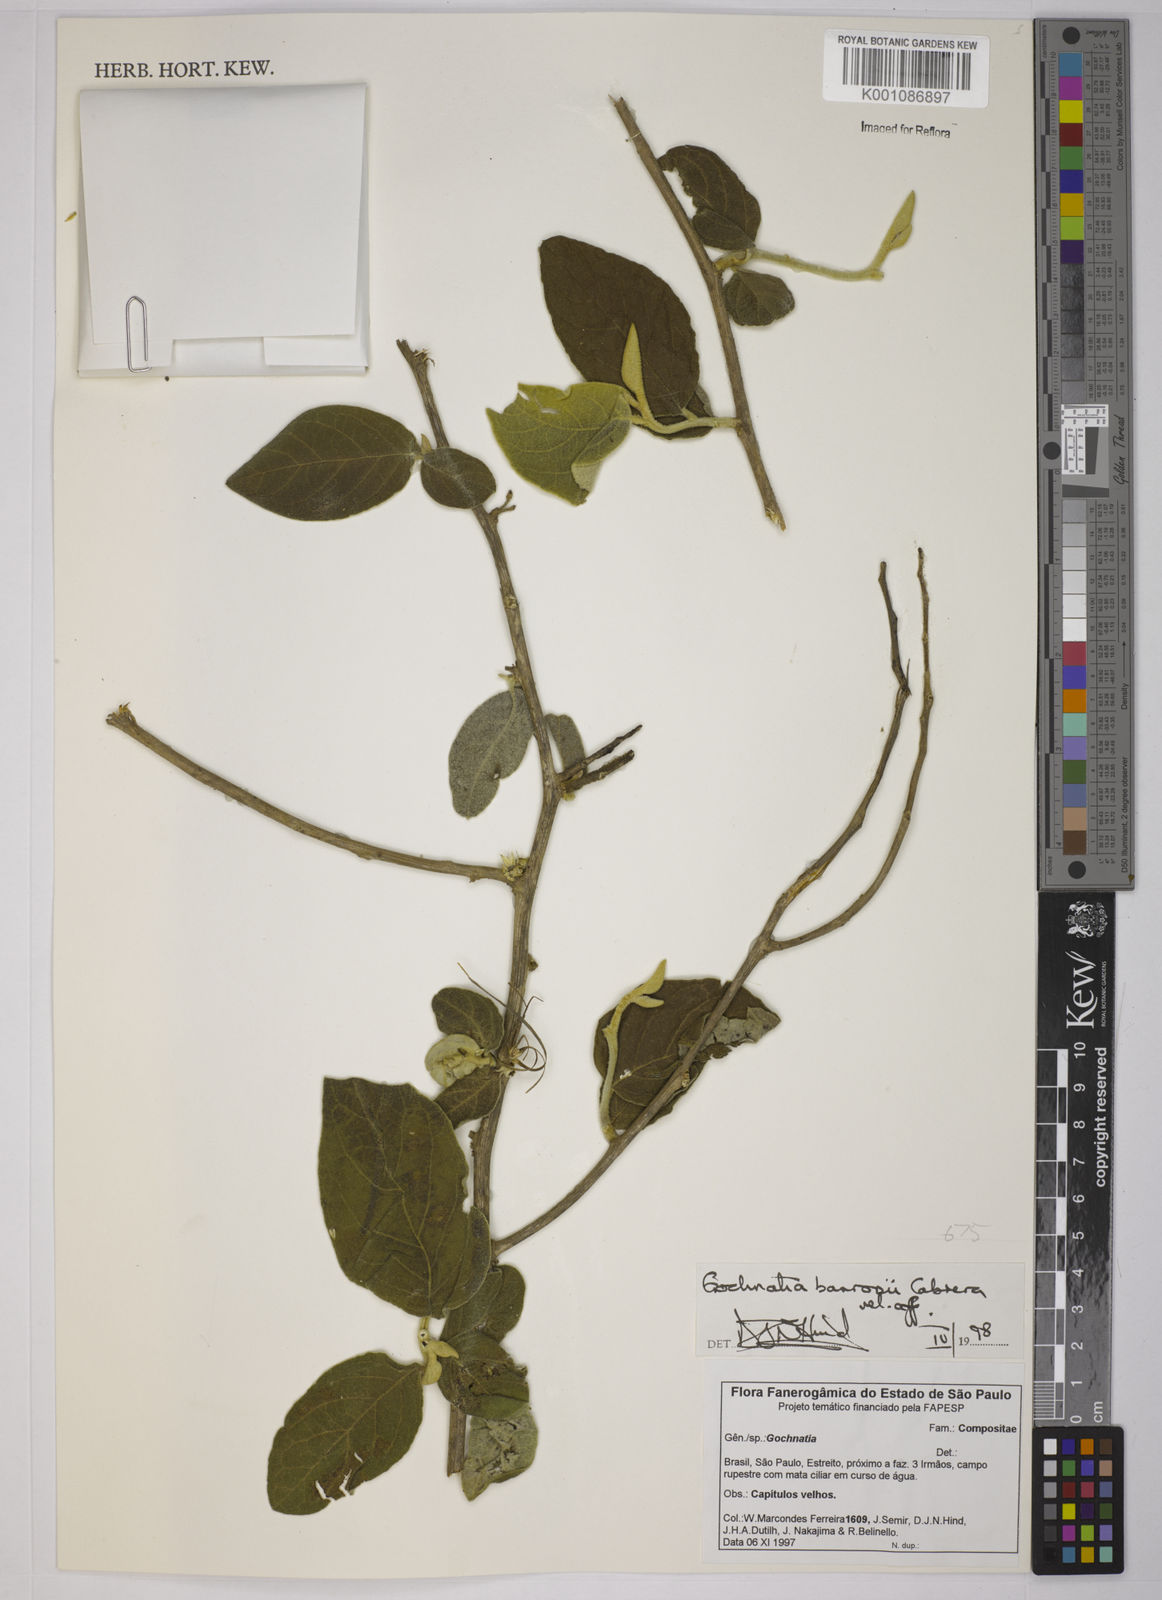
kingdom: Plantae
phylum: Tracheophyta
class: Magnoliopsida
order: Asterales
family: Asteraceae
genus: Moquiniastrum
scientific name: Moquiniastrum barrosoae
